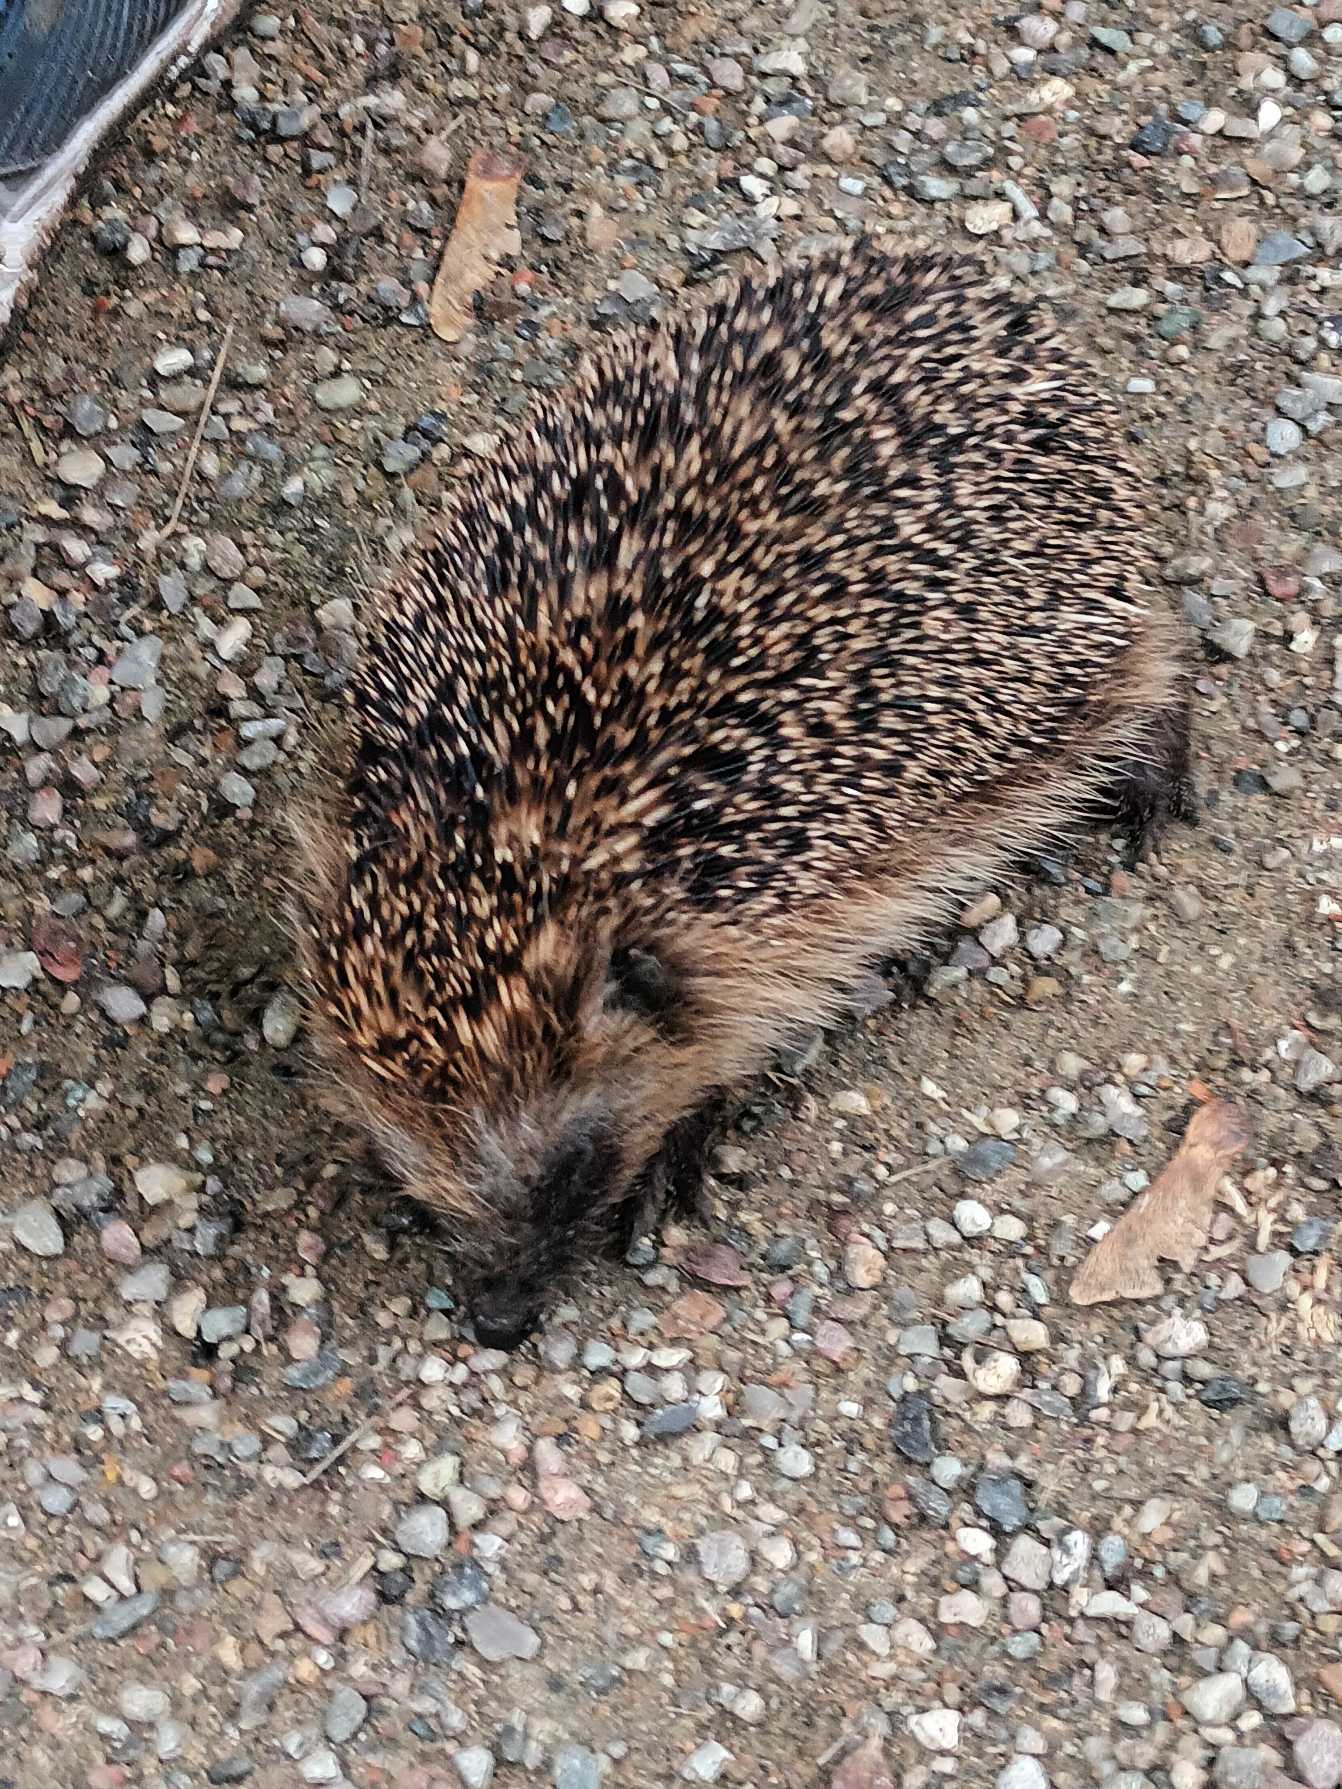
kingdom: Animalia
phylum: Chordata
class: Mammalia
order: Erinaceomorpha
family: Erinaceidae
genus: Erinaceus
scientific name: Erinaceus europaeus
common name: Pindsvin
